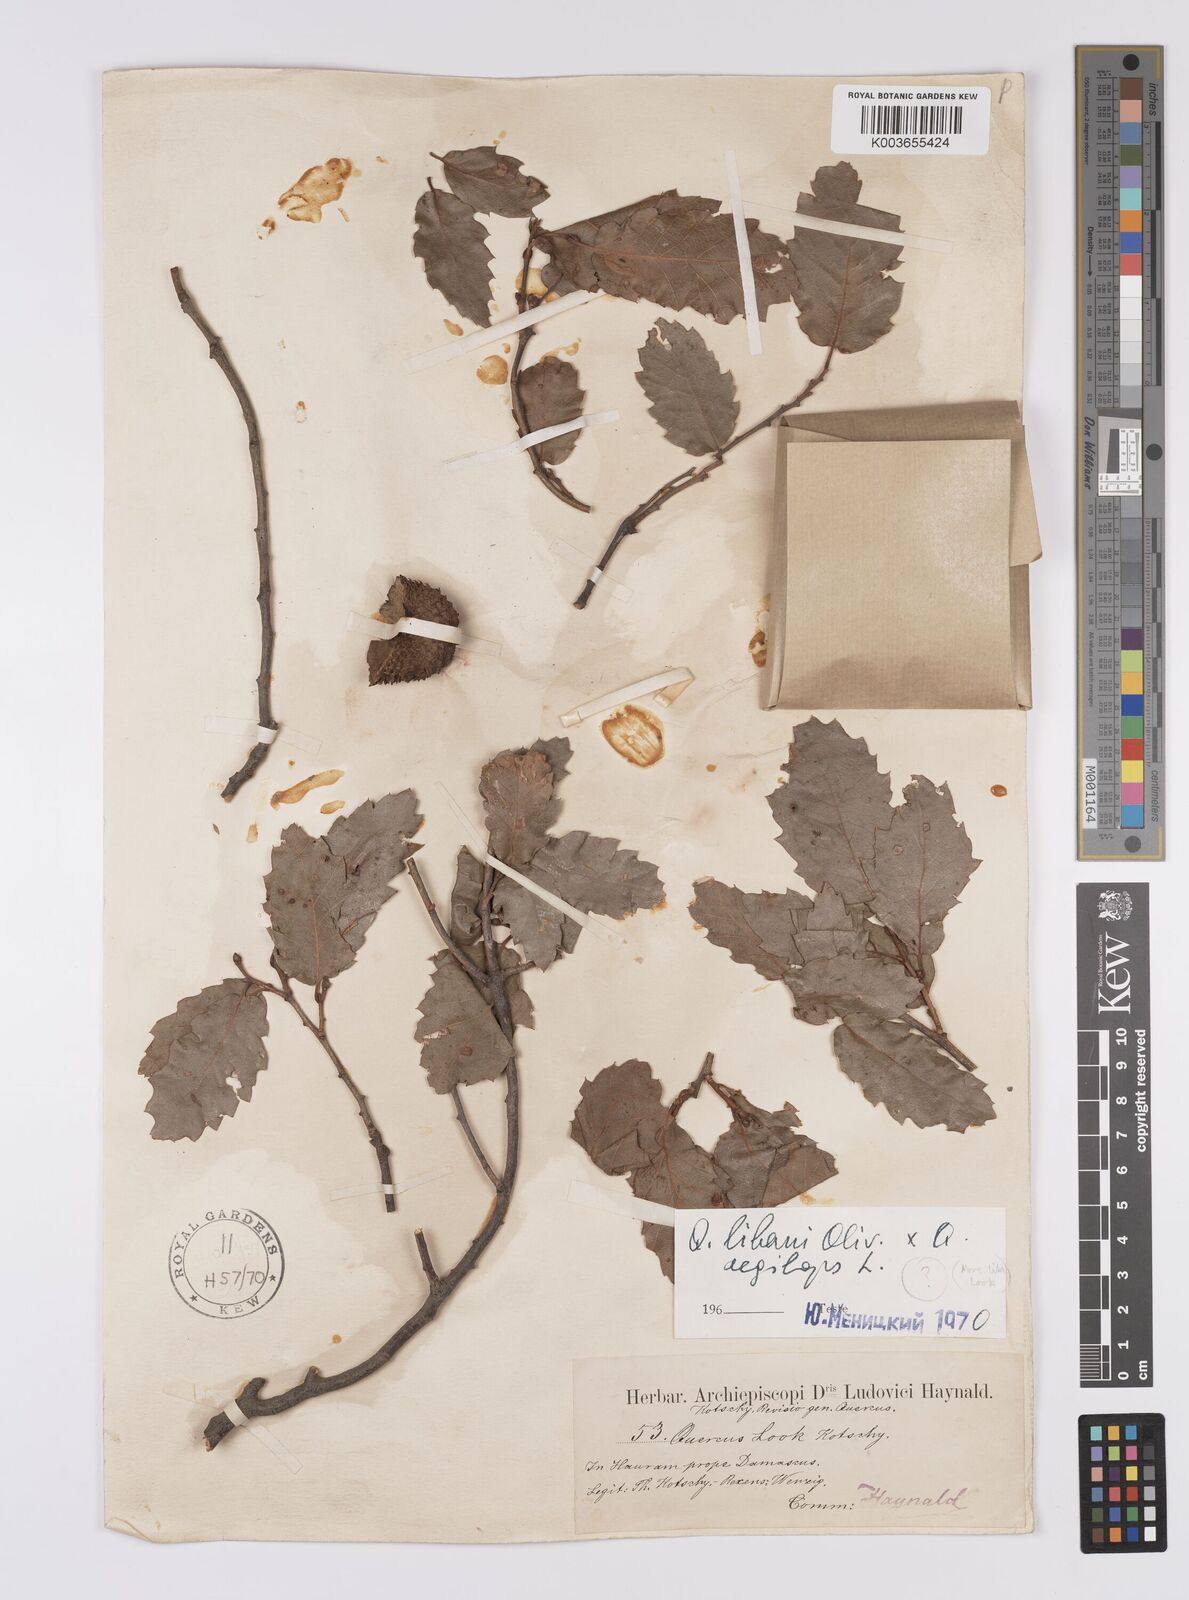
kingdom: Plantae
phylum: Tracheophyta
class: Magnoliopsida
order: Fagales
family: Fagaceae
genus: Quercus
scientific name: Quercus libani
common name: Lebanon oak
